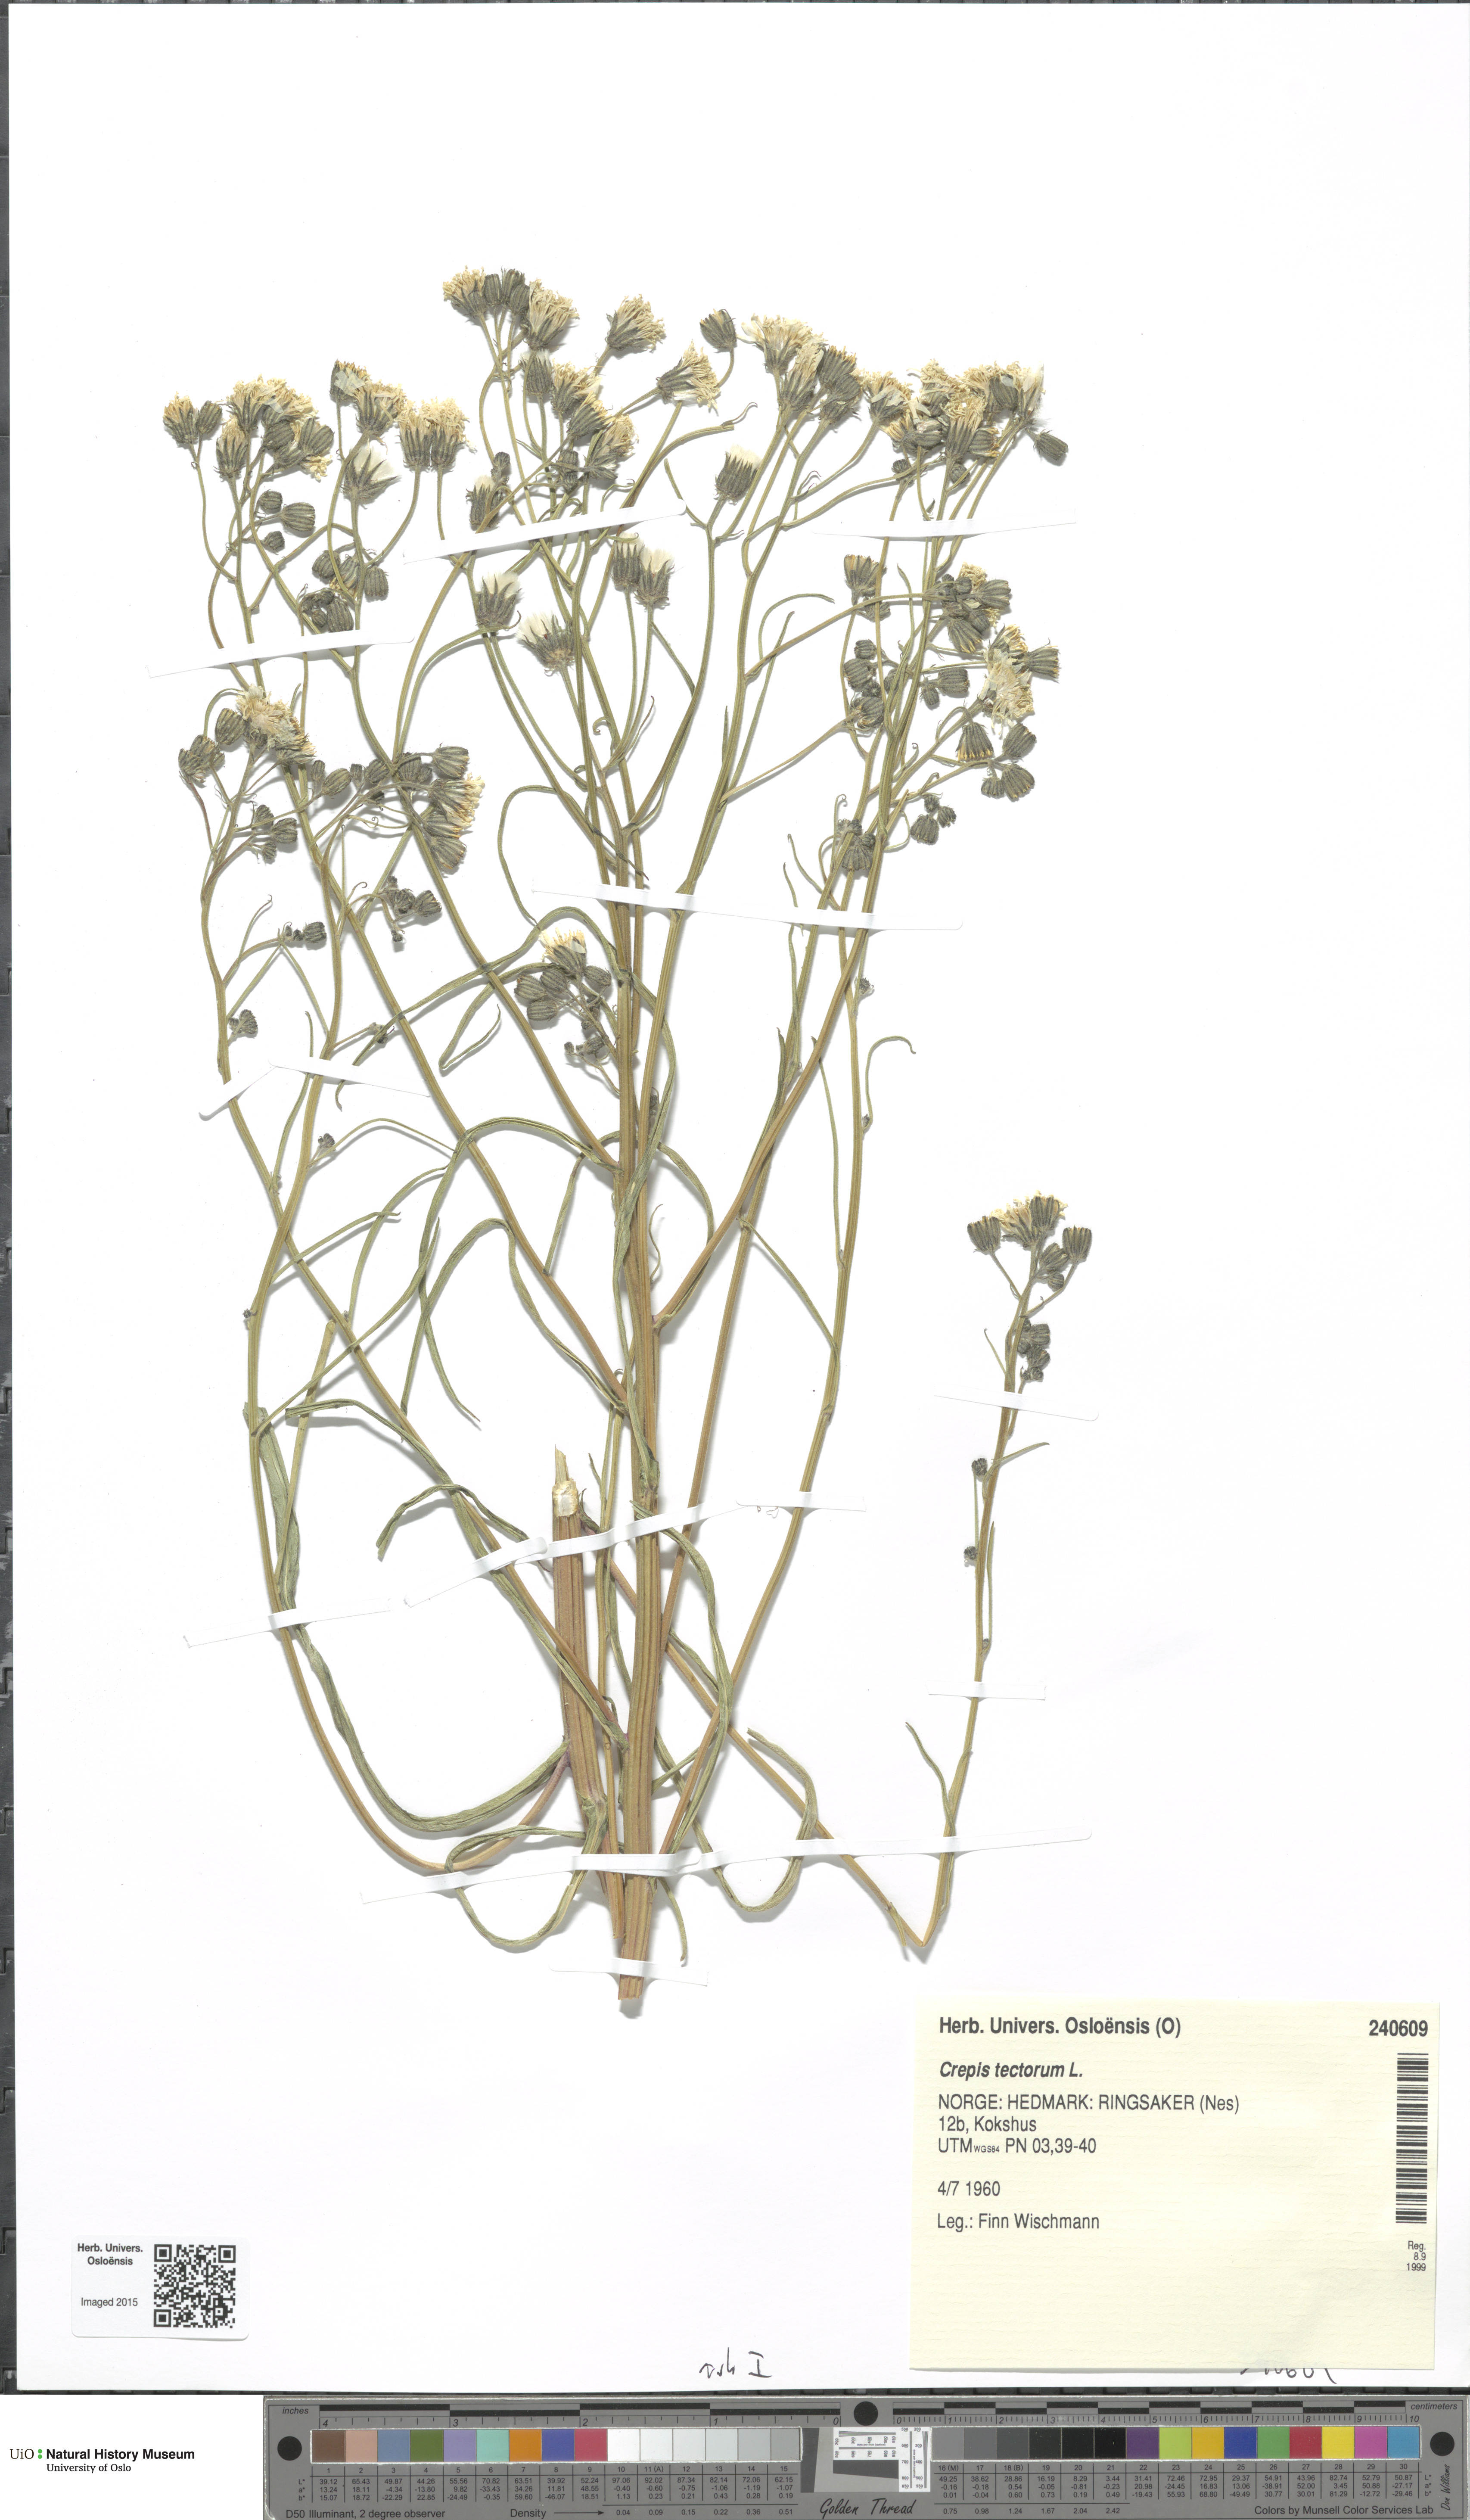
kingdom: Plantae
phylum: Tracheophyta
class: Magnoliopsida
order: Asterales
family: Asteraceae
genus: Crepis
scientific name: Crepis tectorum
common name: Narrow-leaved hawk's-beard
